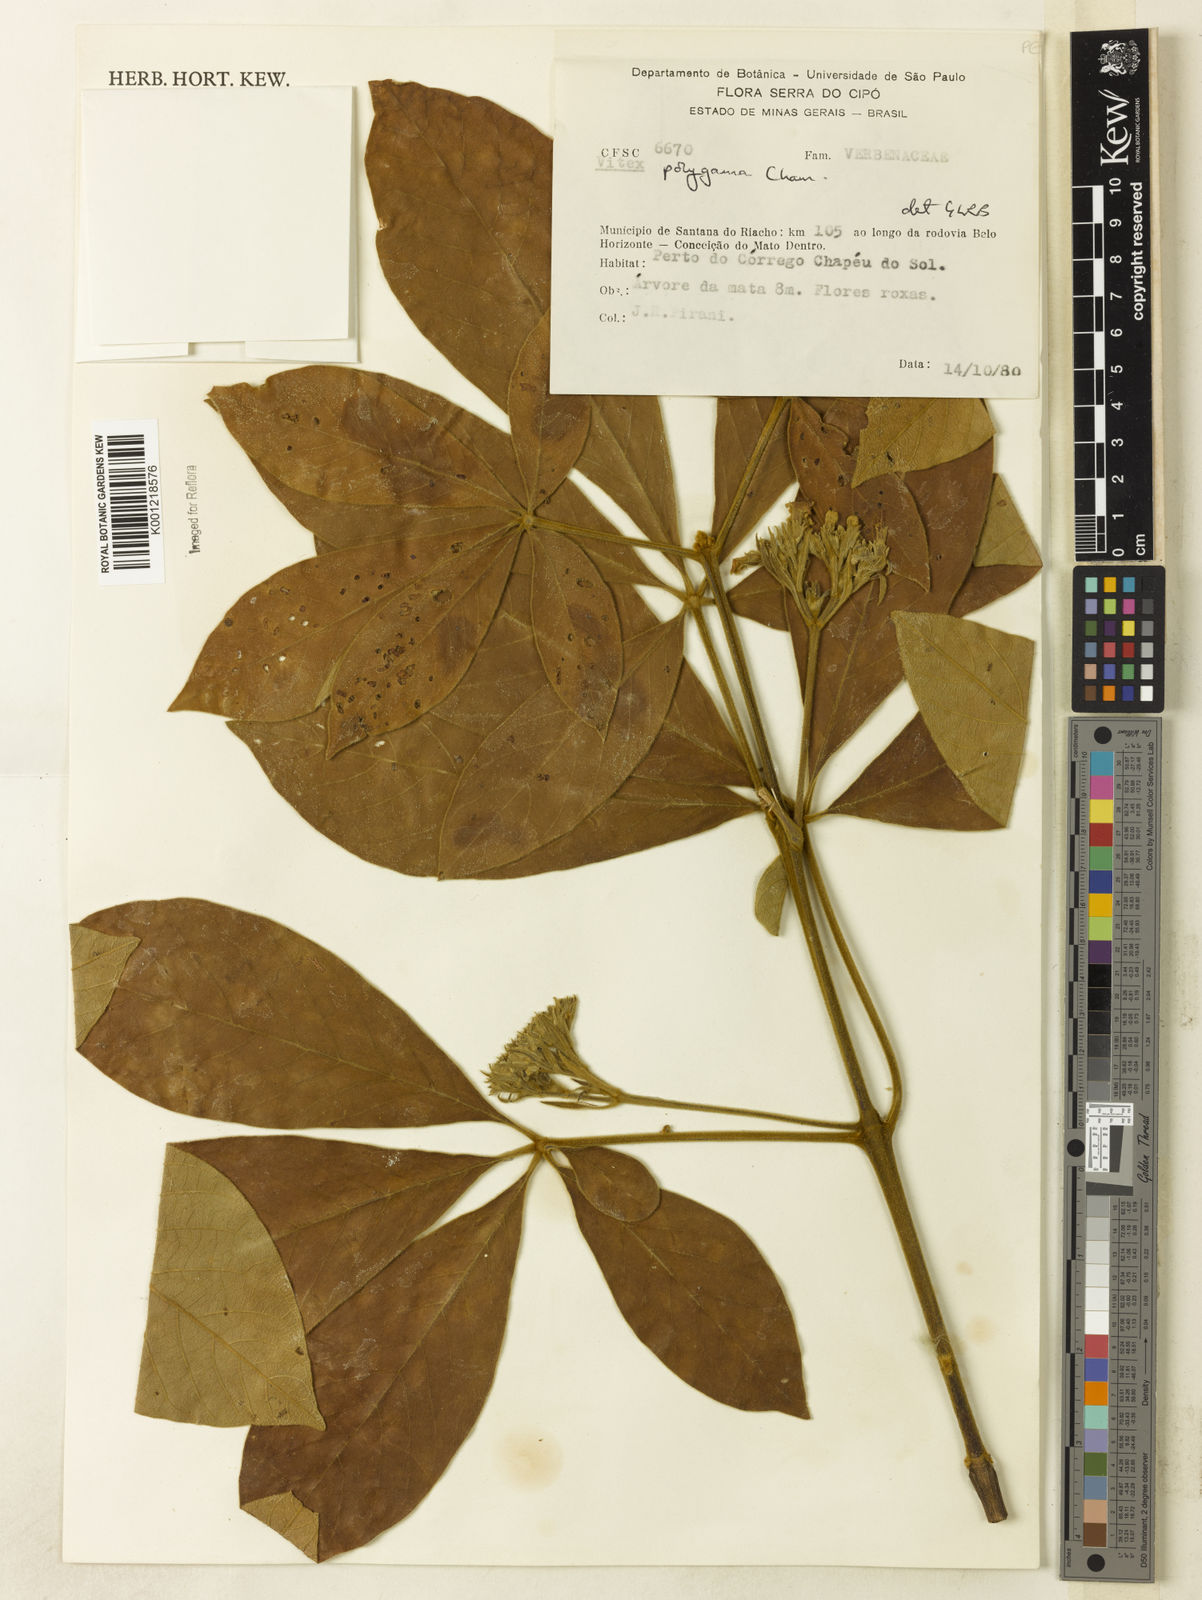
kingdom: Plantae
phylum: Tracheophyta
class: Magnoliopsida
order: Lamiales
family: Lamiaceae
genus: Vitex
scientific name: Vitex polygama
